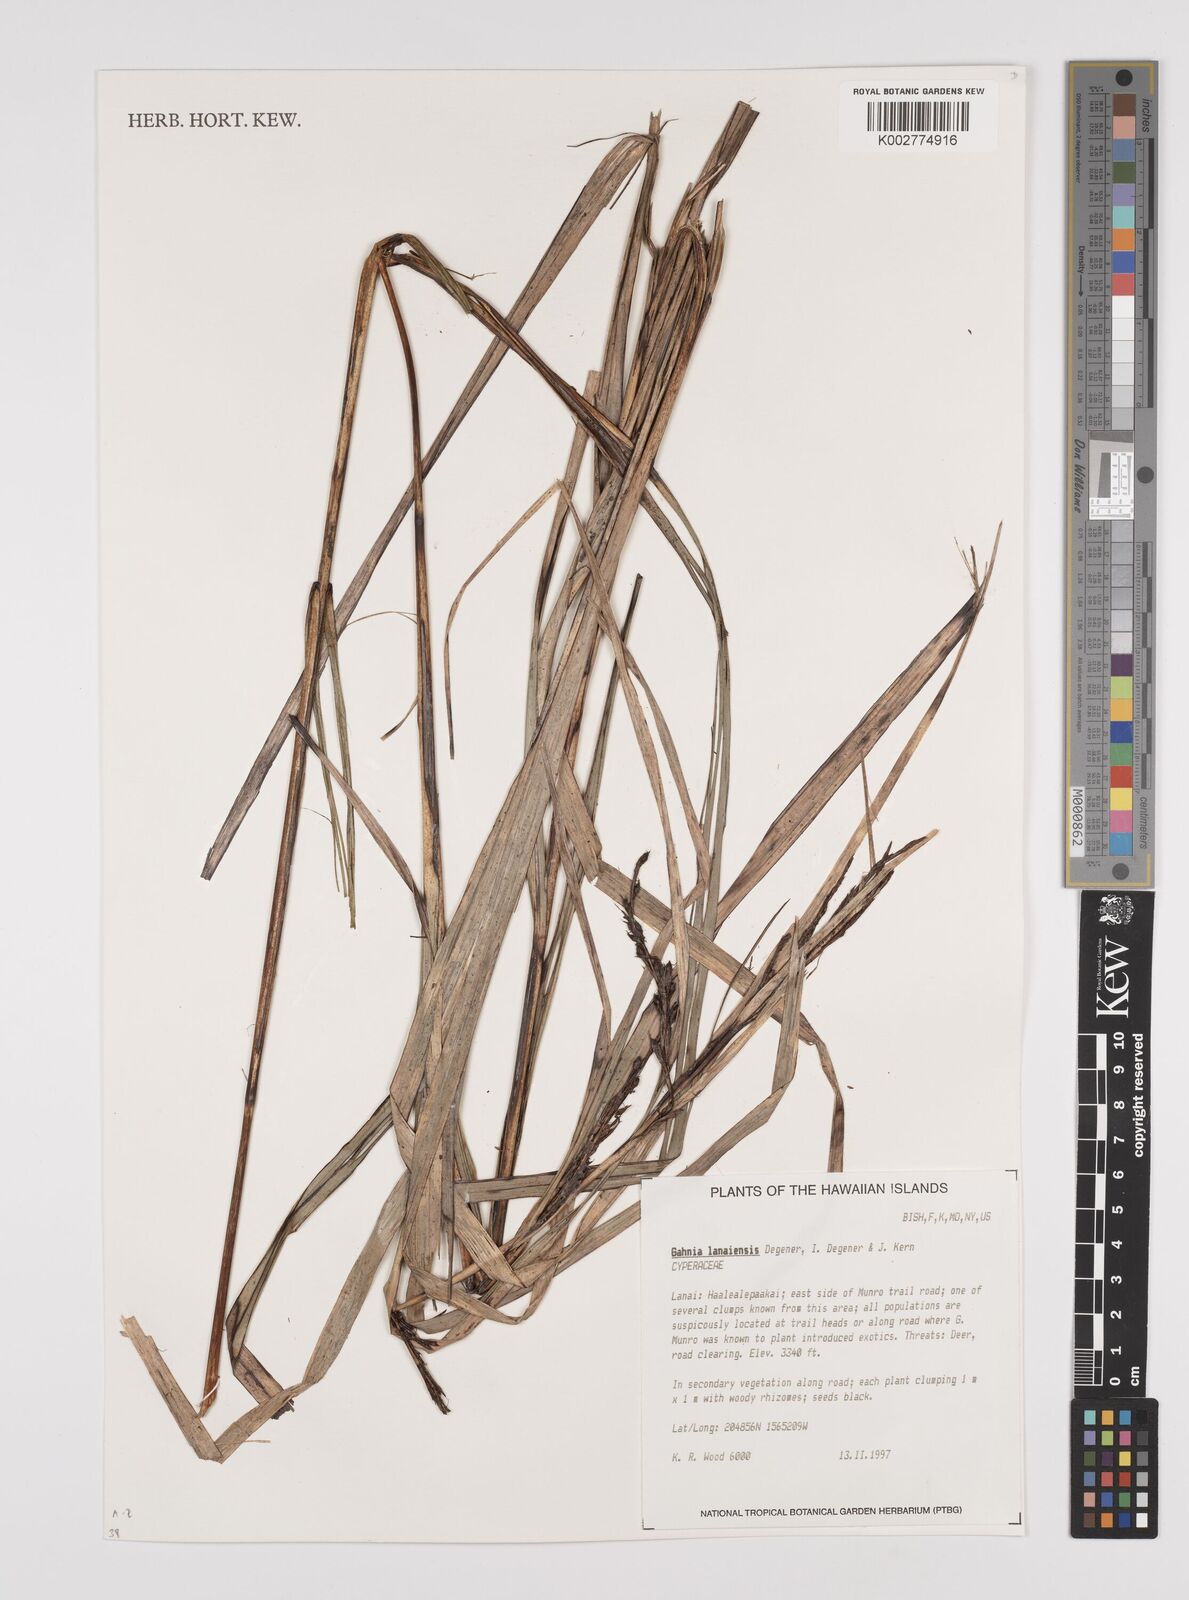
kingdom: Plantae
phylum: Tracheophyta
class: Liliopsida
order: Poales
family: Cyperaceae
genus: Gahnia
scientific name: Gahnia lacera
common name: Sawsedge
